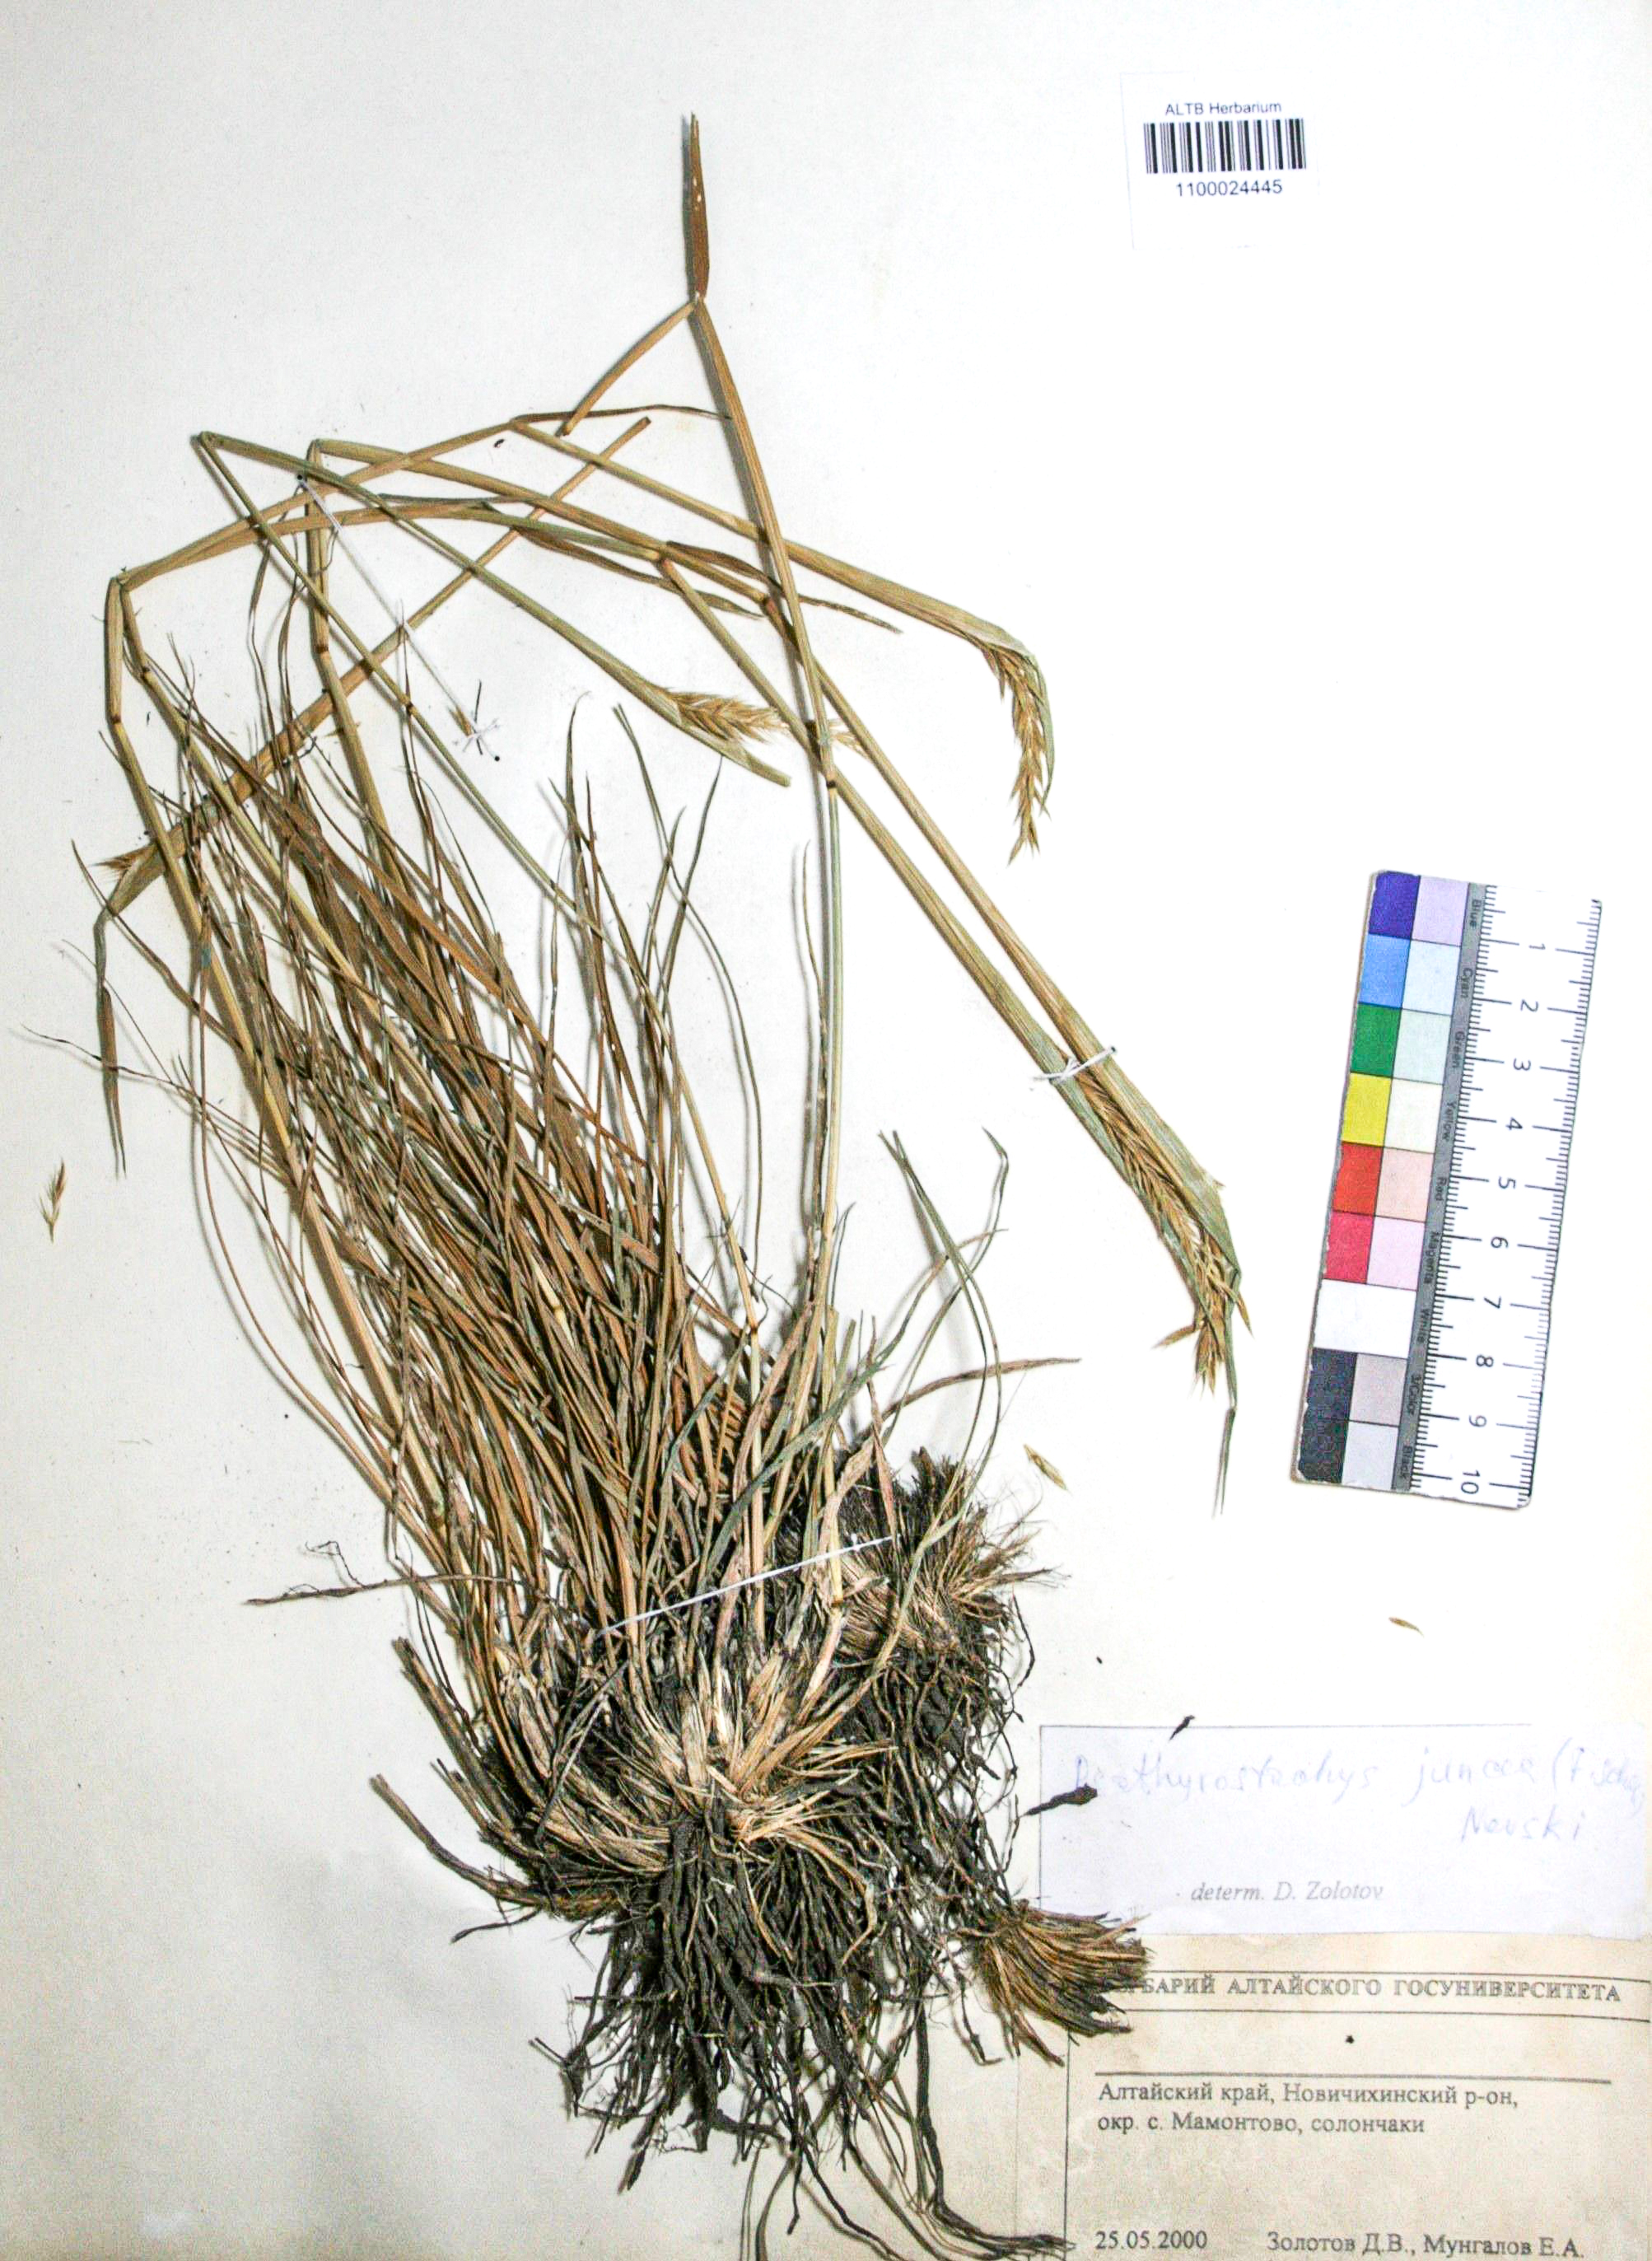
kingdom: Plantae
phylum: Tracheophyta
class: Liliopsida
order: Poales
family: Poaceae
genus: Psathyrostachys
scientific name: Psathyrostachys juncea
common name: Russian wildrye
